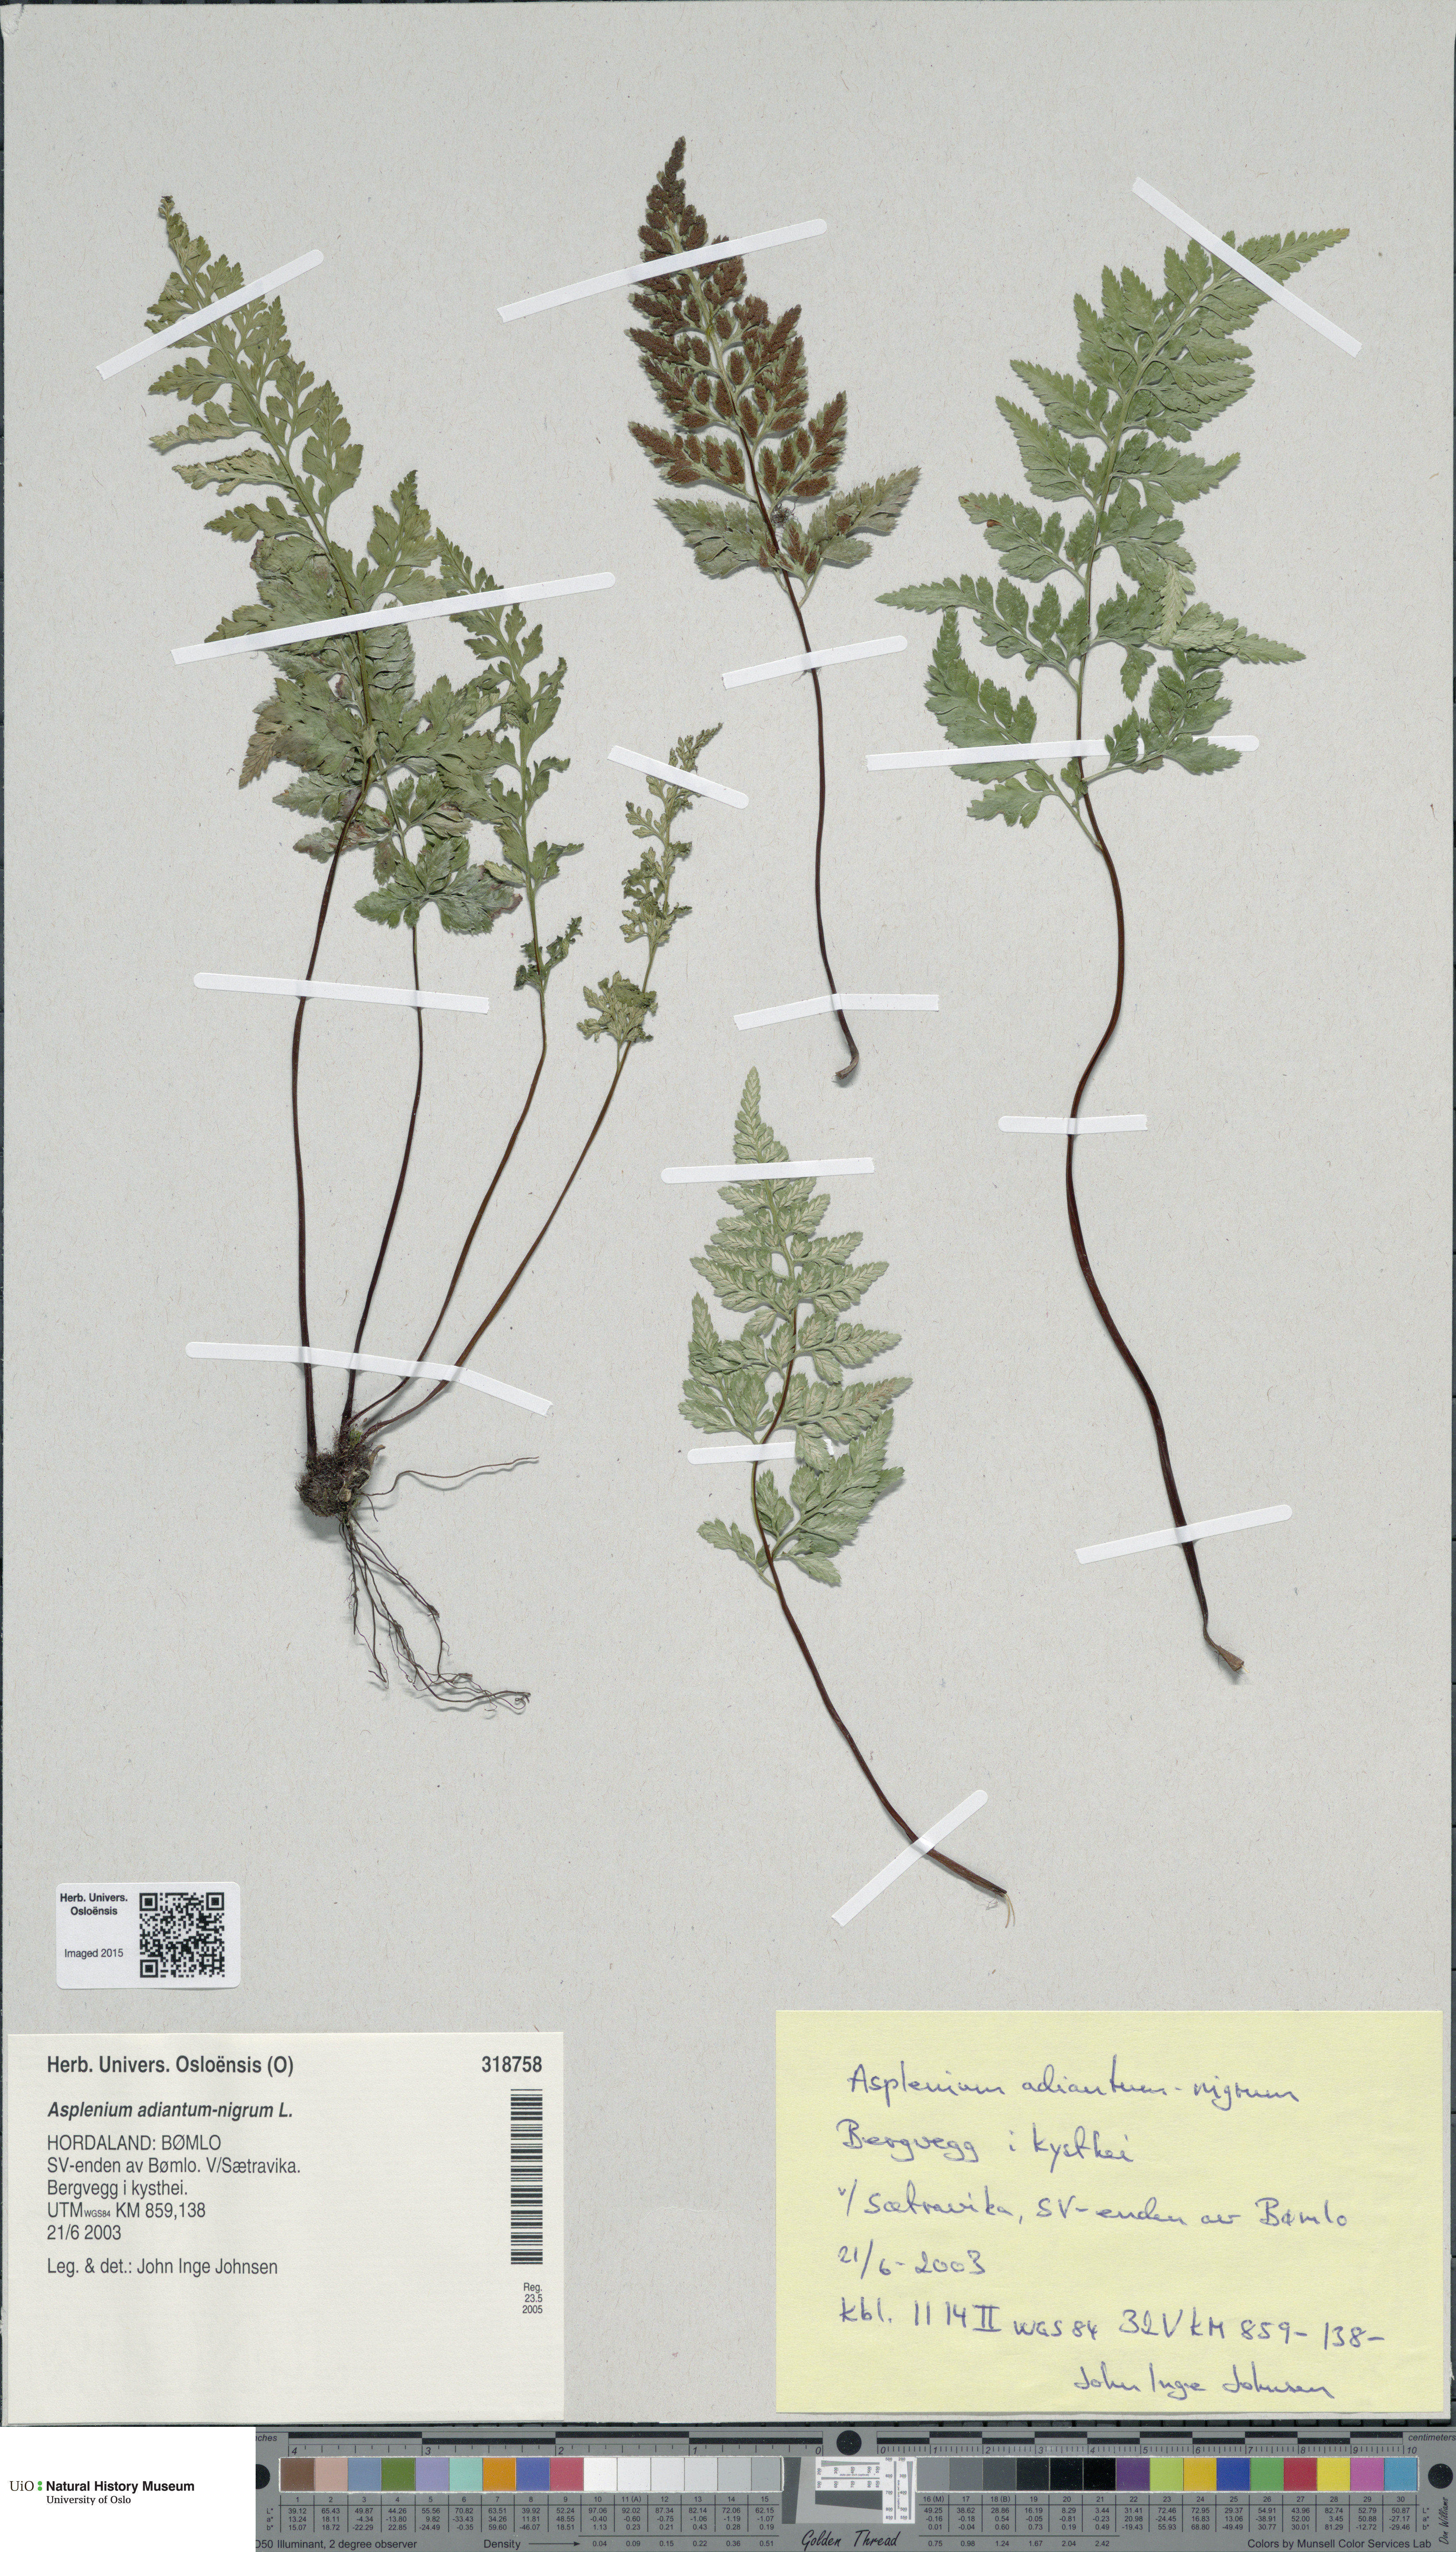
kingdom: Plantae
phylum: Tracheophyta
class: Polypodiopsida
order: Polypodiales
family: Aspleniaceae
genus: Asplenium
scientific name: Asplenium adiantum-nigrum
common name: Black spleenwort
